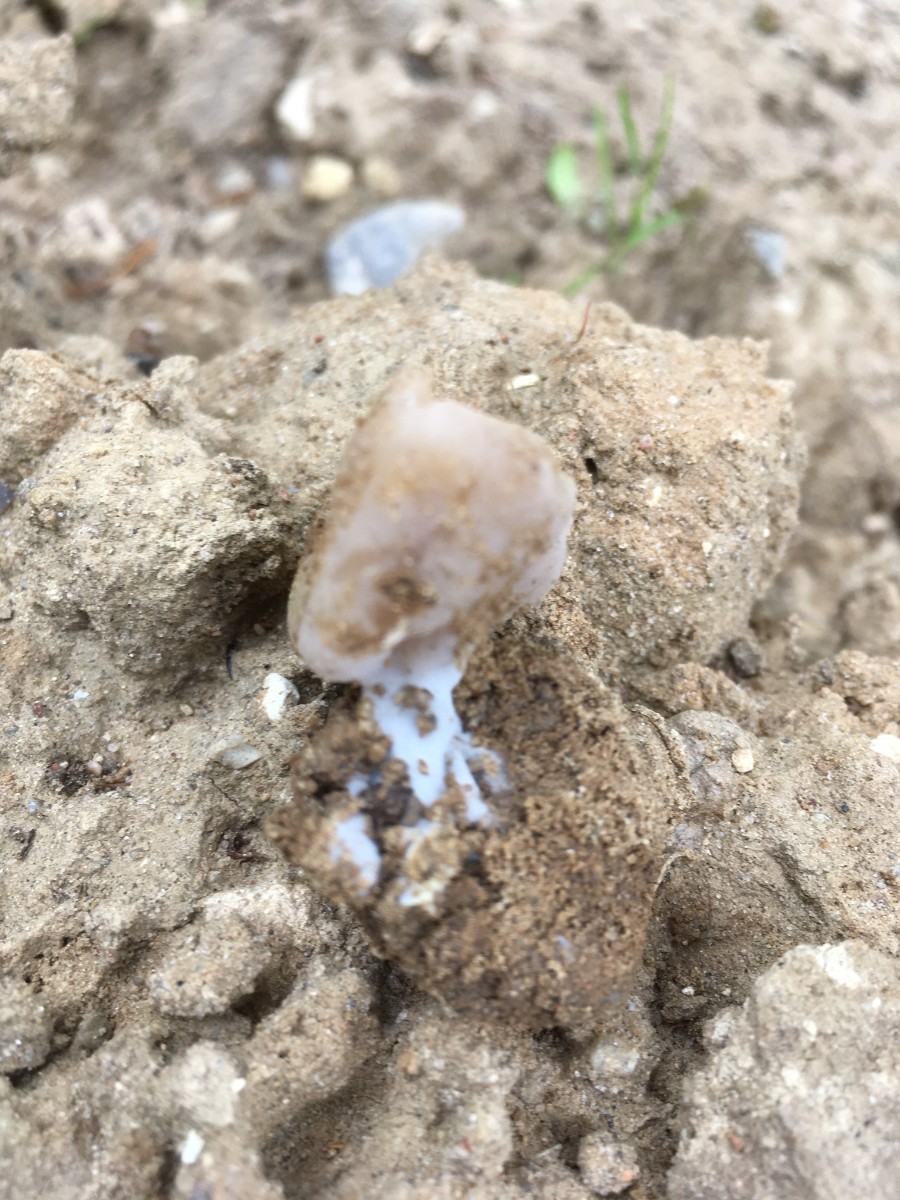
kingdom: Fungi
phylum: Ascomycota
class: Pezizomycetes
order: Pezizales
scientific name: Pezizales
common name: bægersvampordenen
